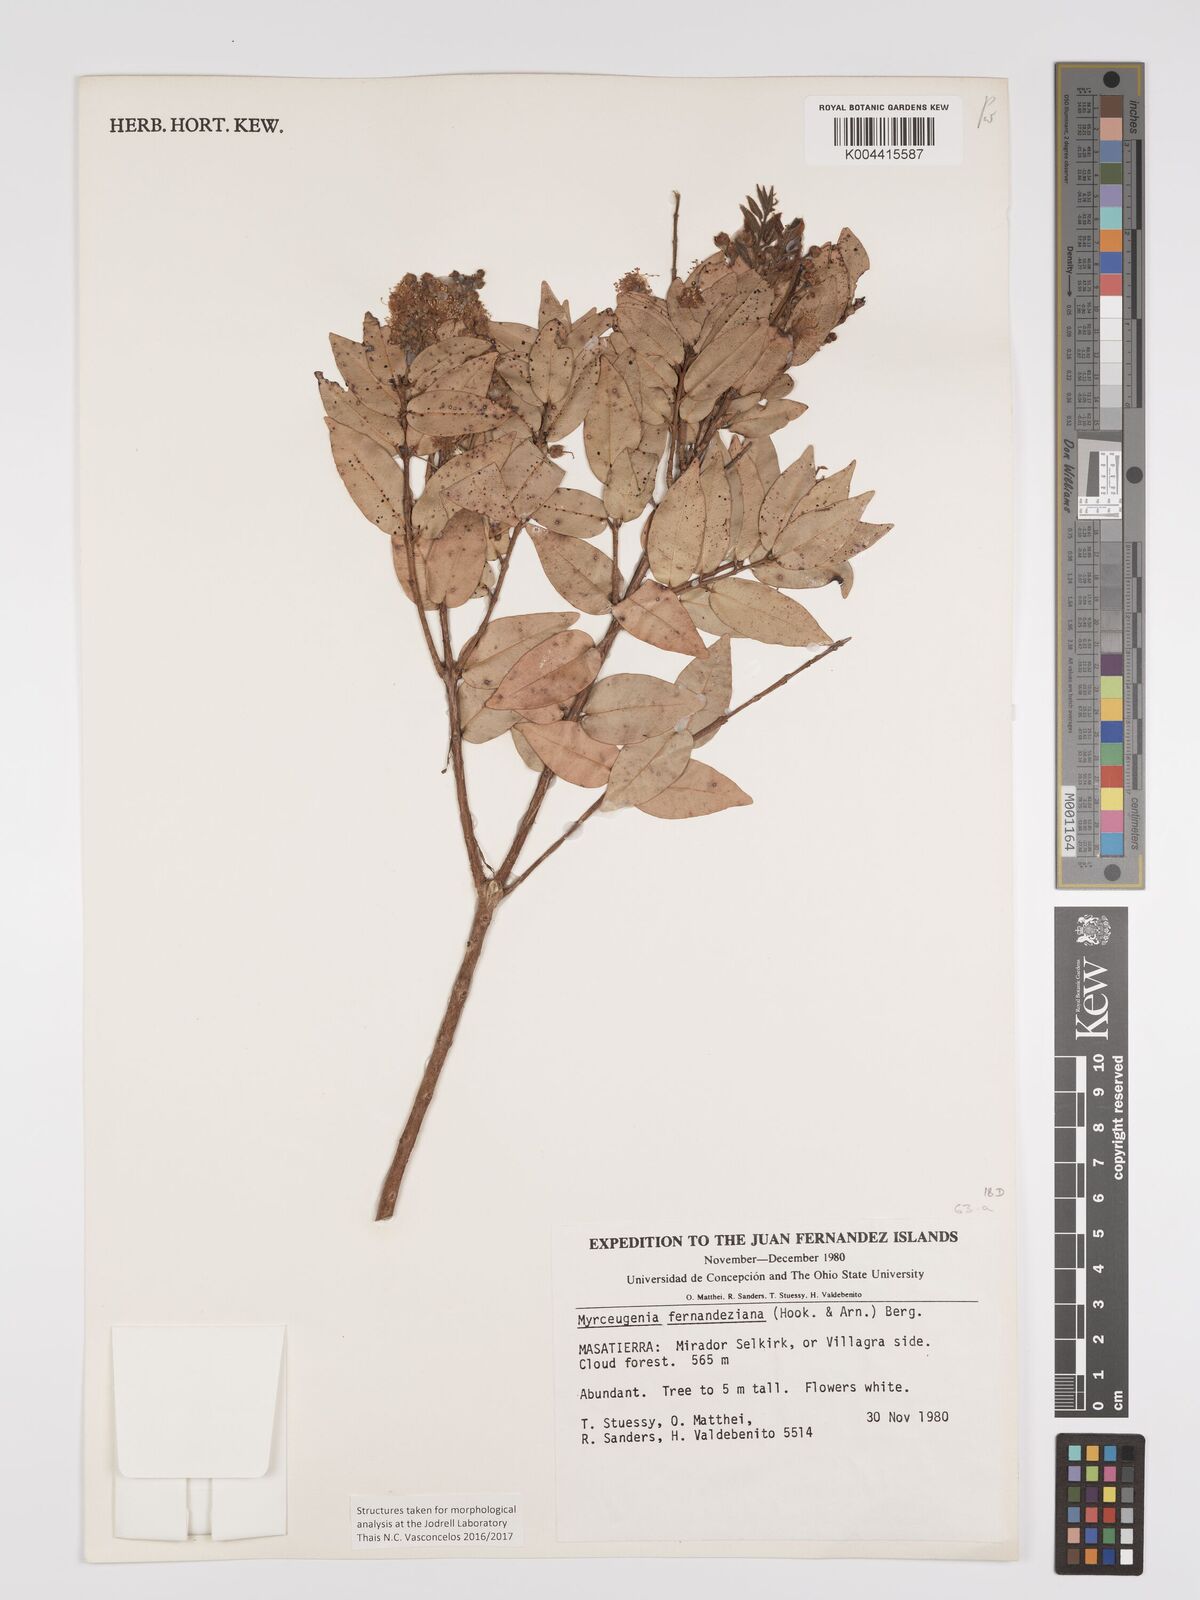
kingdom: Plantae
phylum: Tracheophyta
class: Magnoliopsida
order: Myrtales
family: Myrtaceae
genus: Nothomyrcia
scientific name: Nothomyrcia fernandeziana
